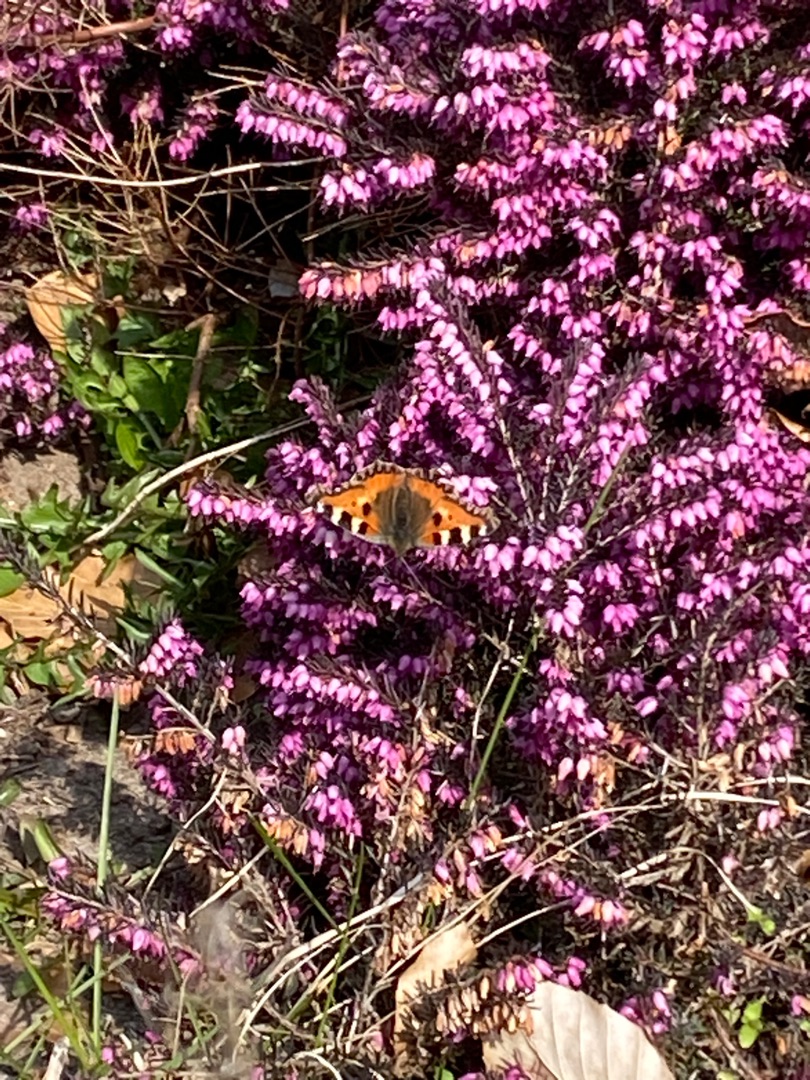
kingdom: Animalia
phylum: Arthropoda
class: Insecta
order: Lepidoptera
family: Nymphalidae
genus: Aglais
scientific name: Aglais urticae
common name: Nældens takvinge
